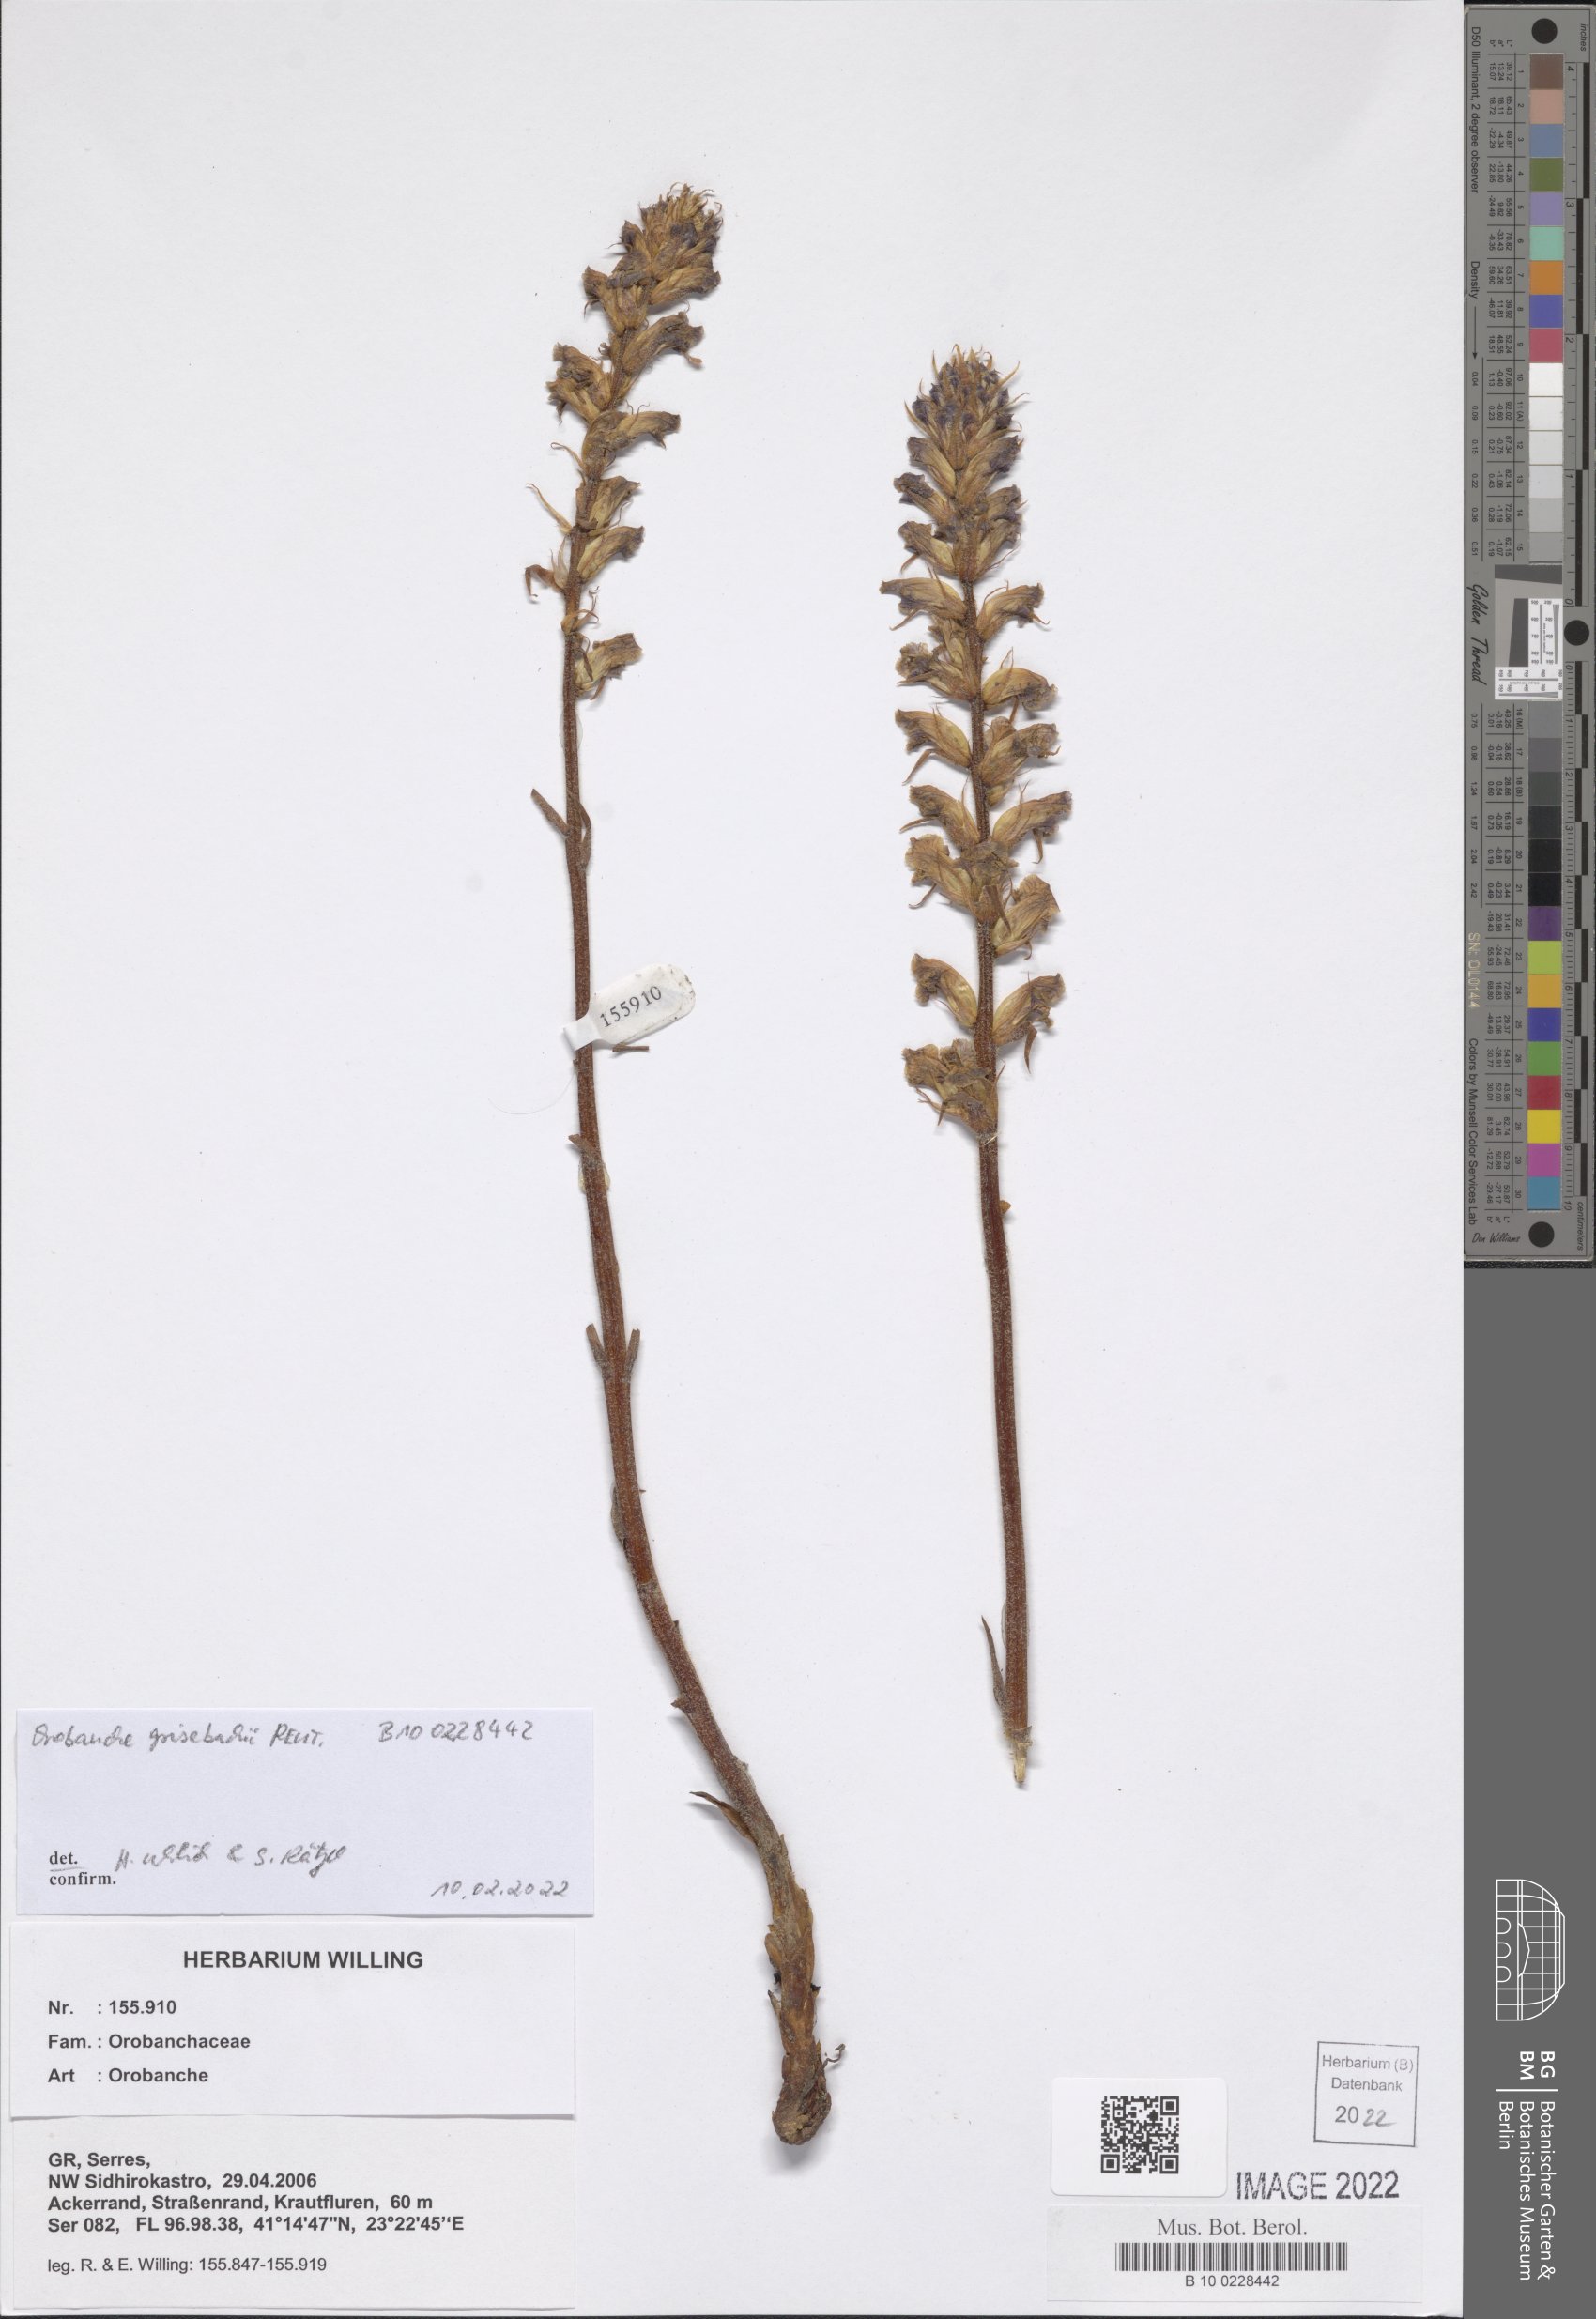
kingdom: Plantae
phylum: Tracheophyta
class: Magnoliopsida
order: Lamiales
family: Orobanchaceae
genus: Orobanche
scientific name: Orobanche grisebachii
